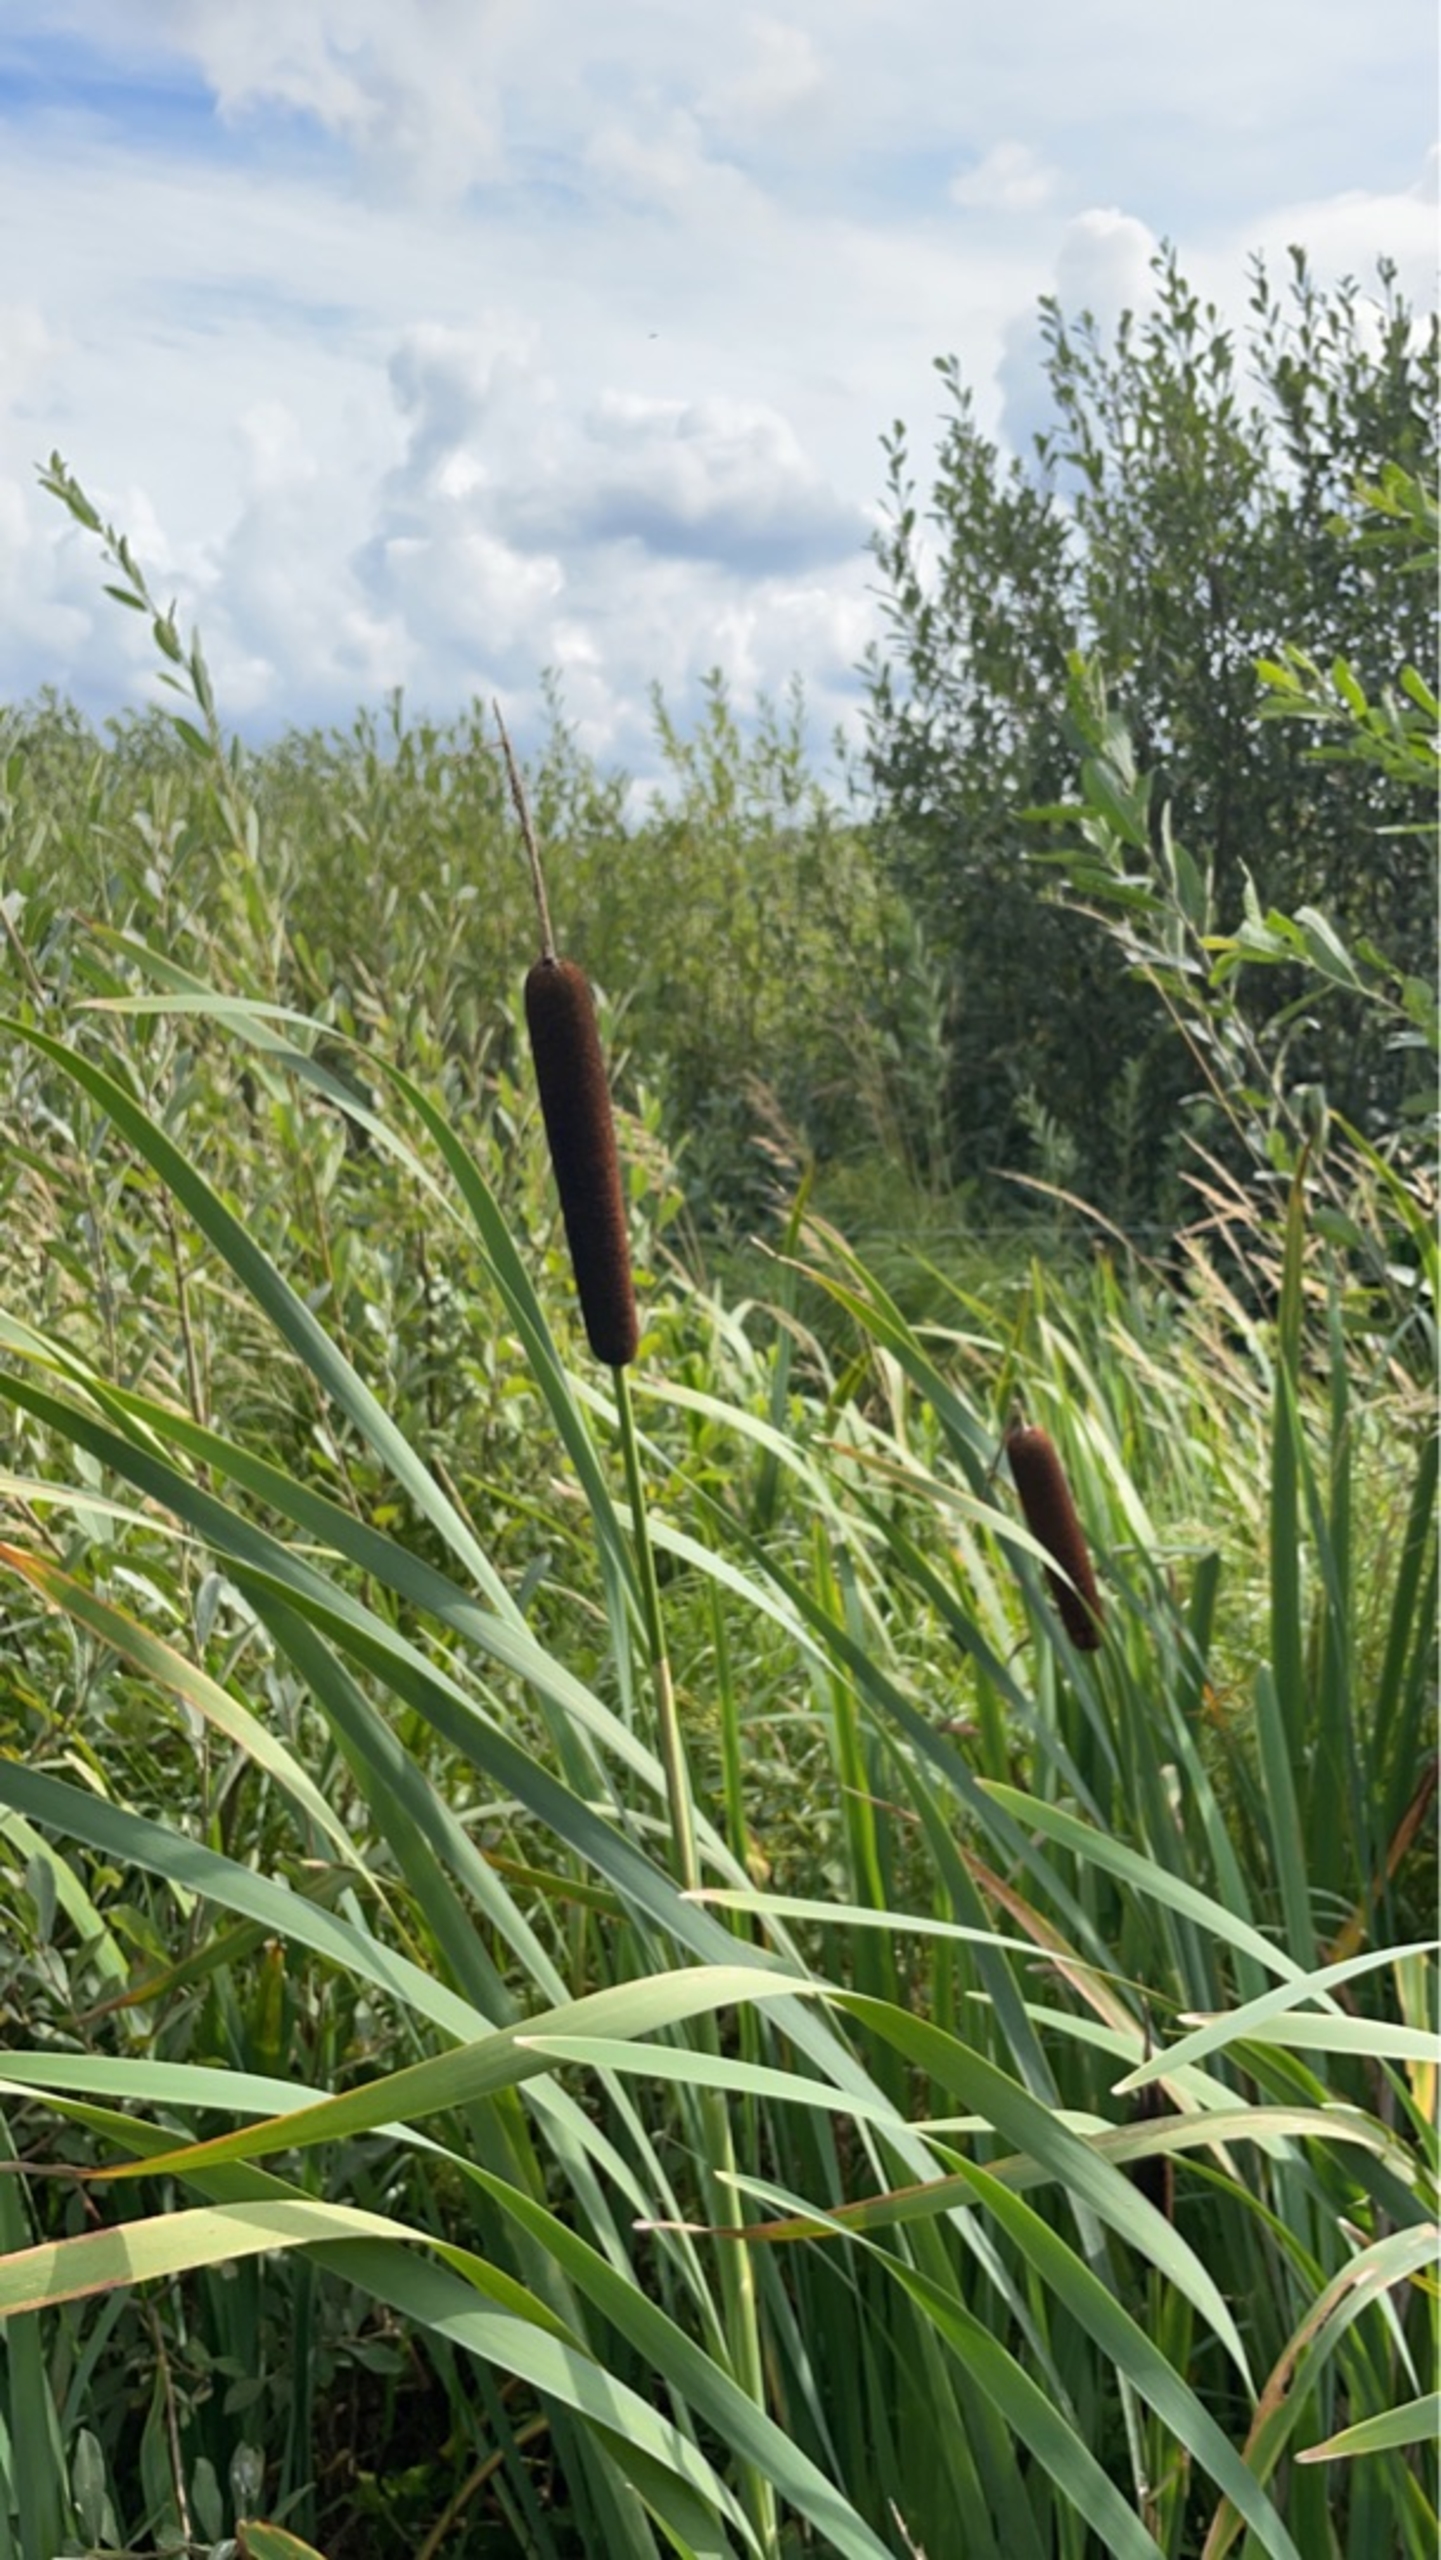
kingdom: Plantae
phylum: Tracheophyta
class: Liliopsida
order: Poales
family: Typhaceae
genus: Typha
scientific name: Typha latifolia
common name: Bredbladet dunhammer
